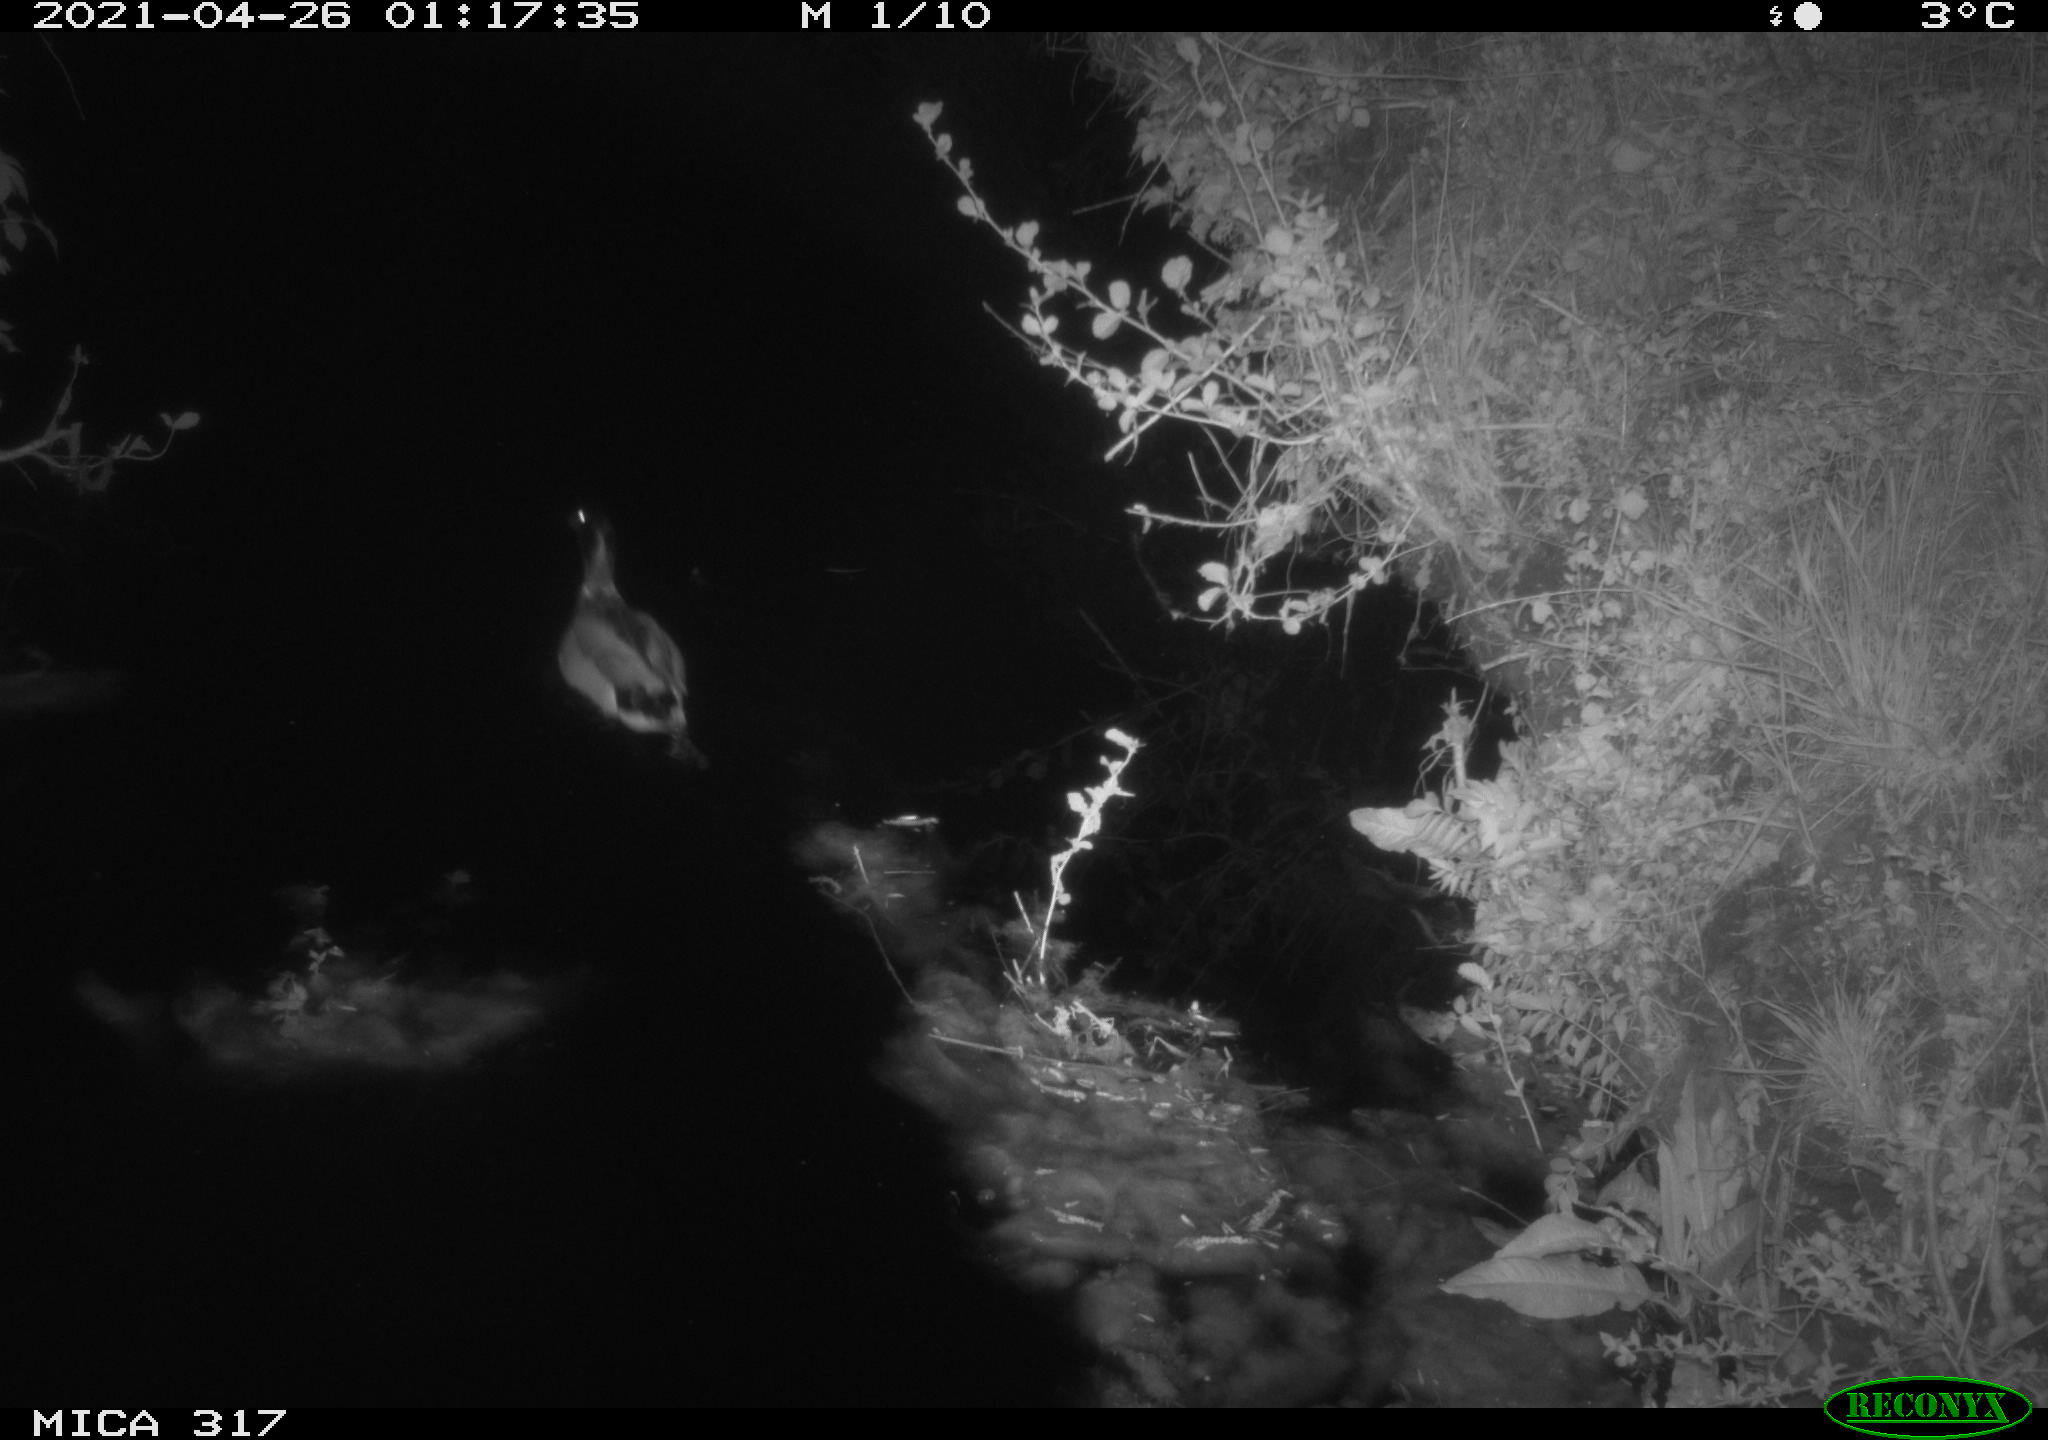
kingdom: Animalia
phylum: Chordata
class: Aves
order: Anseriformes
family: Anatidae
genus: Anas
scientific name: Anas
